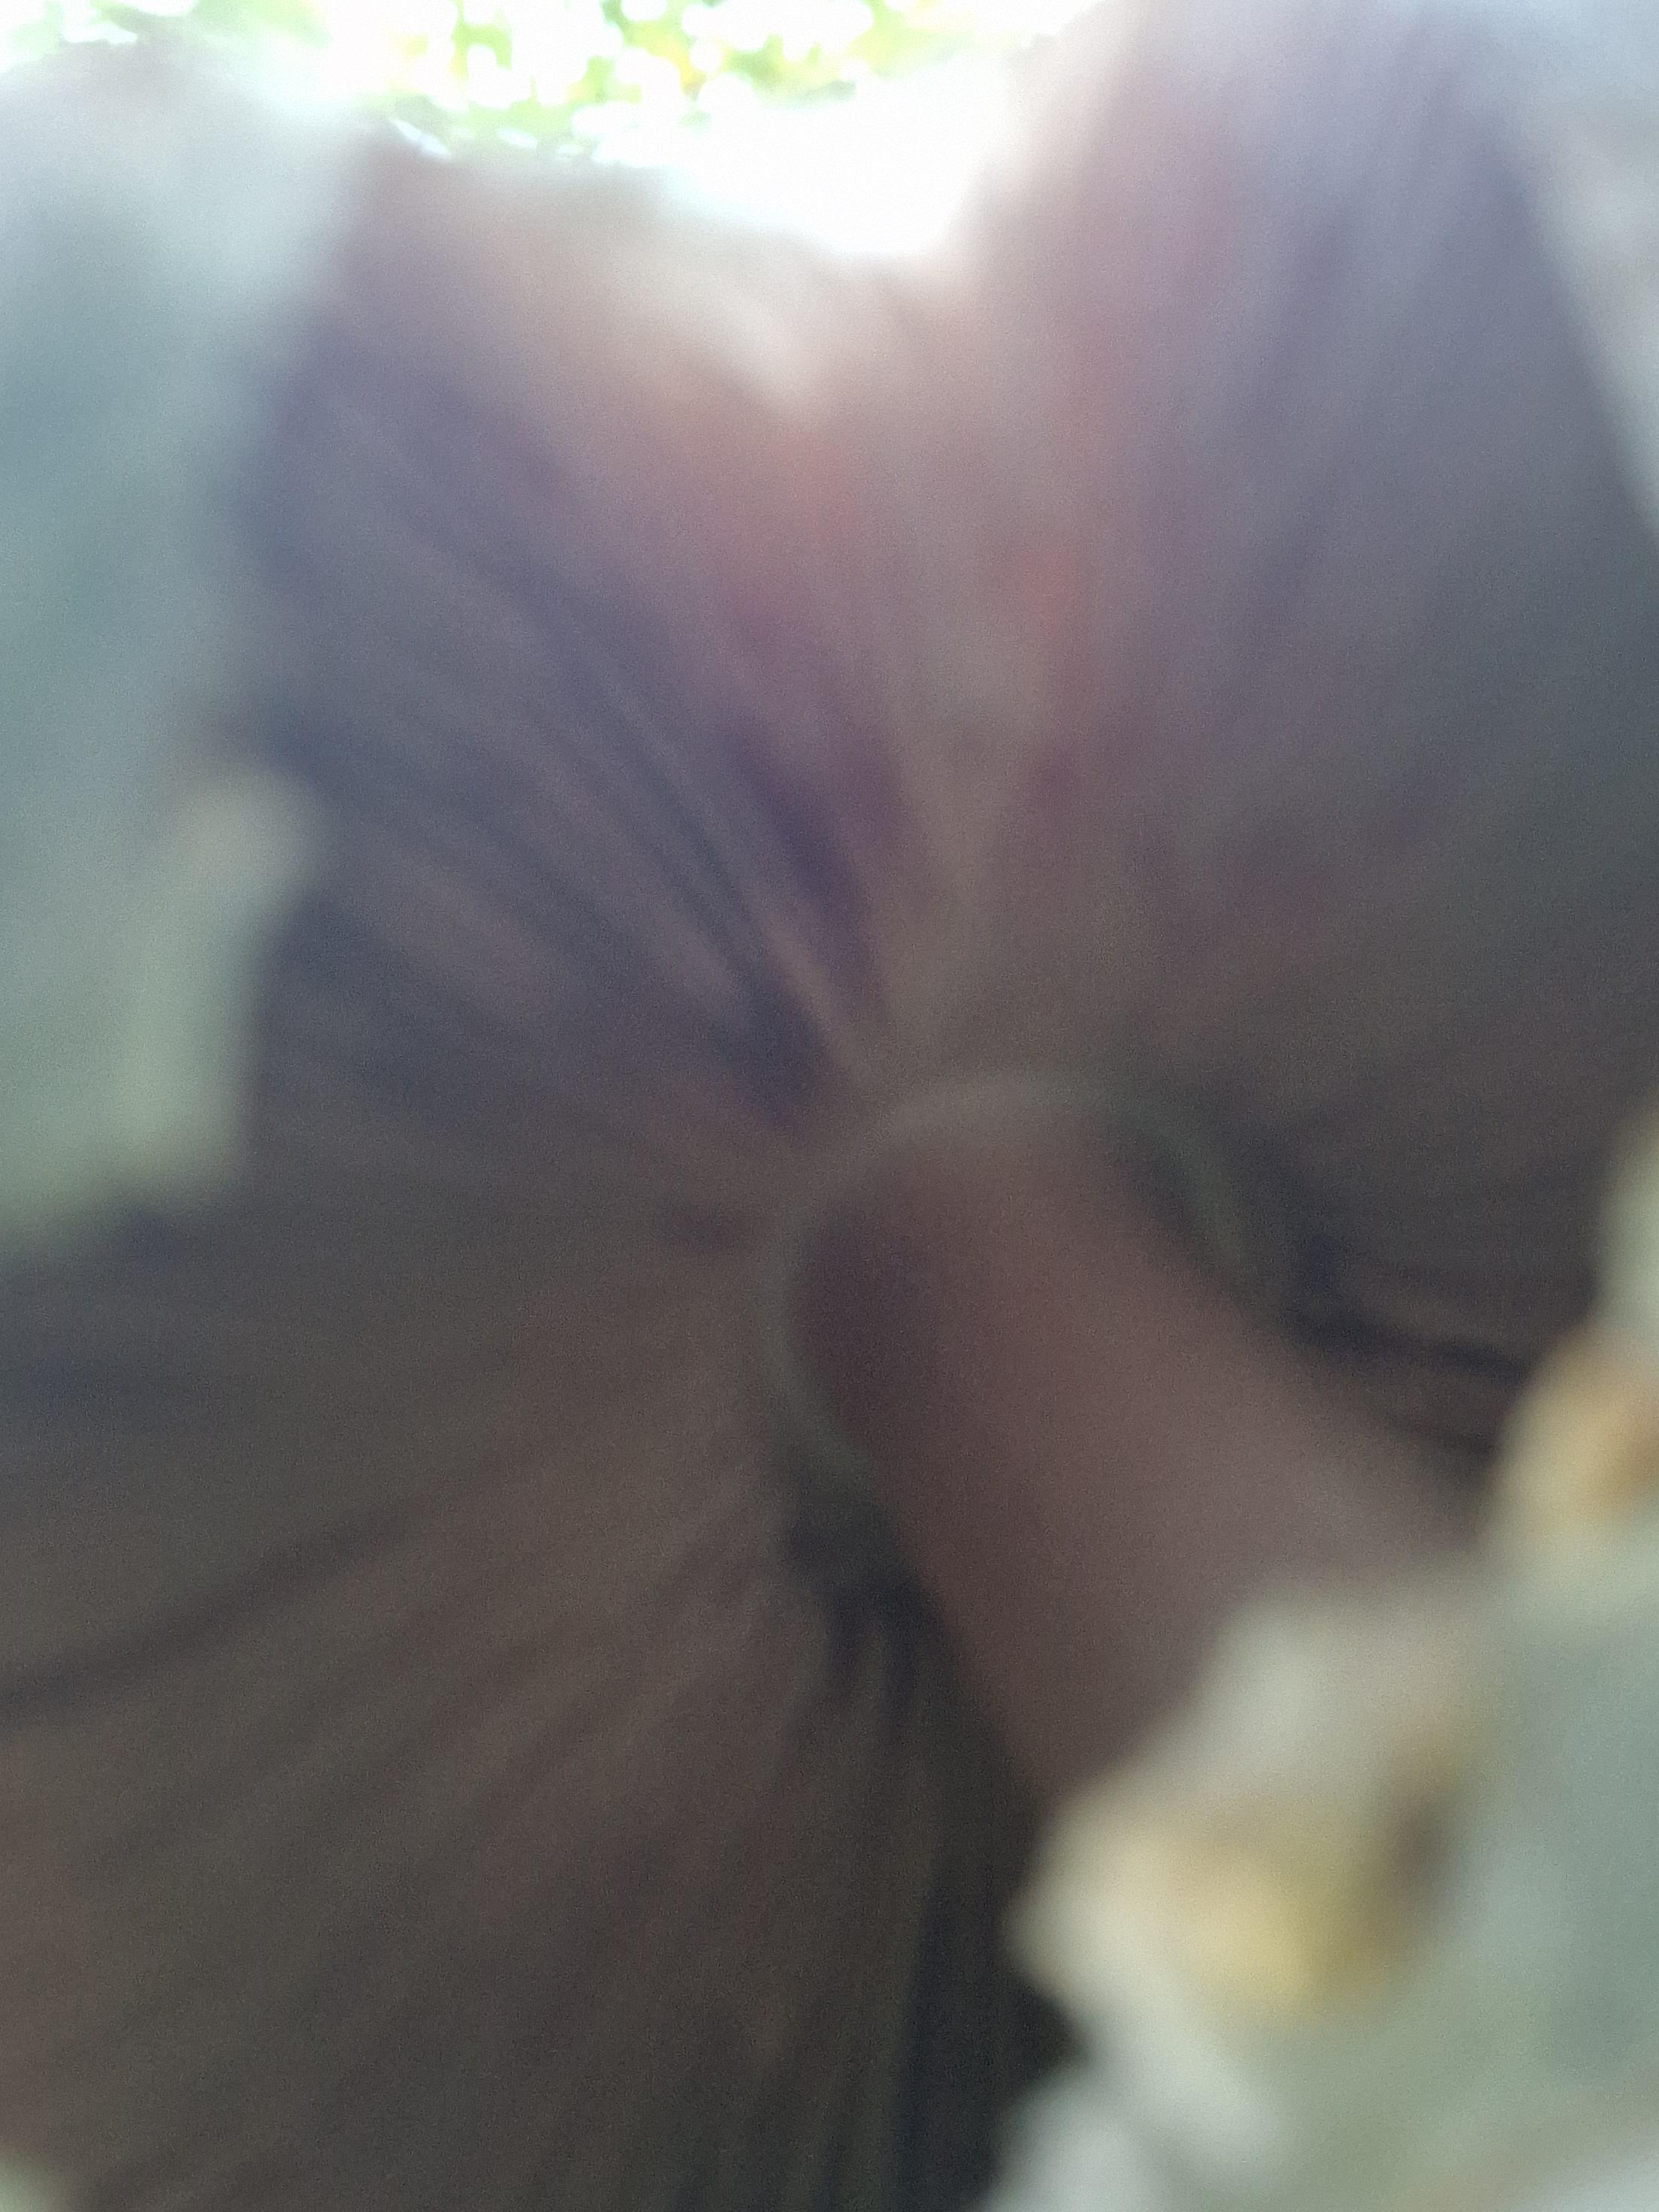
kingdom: Fungi
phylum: Basidiomycota
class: Agaricomycetes
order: Agaricales
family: Agaricaceae
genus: Agaricus
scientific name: Agaricus xanthodermus
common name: karbol-champignon
